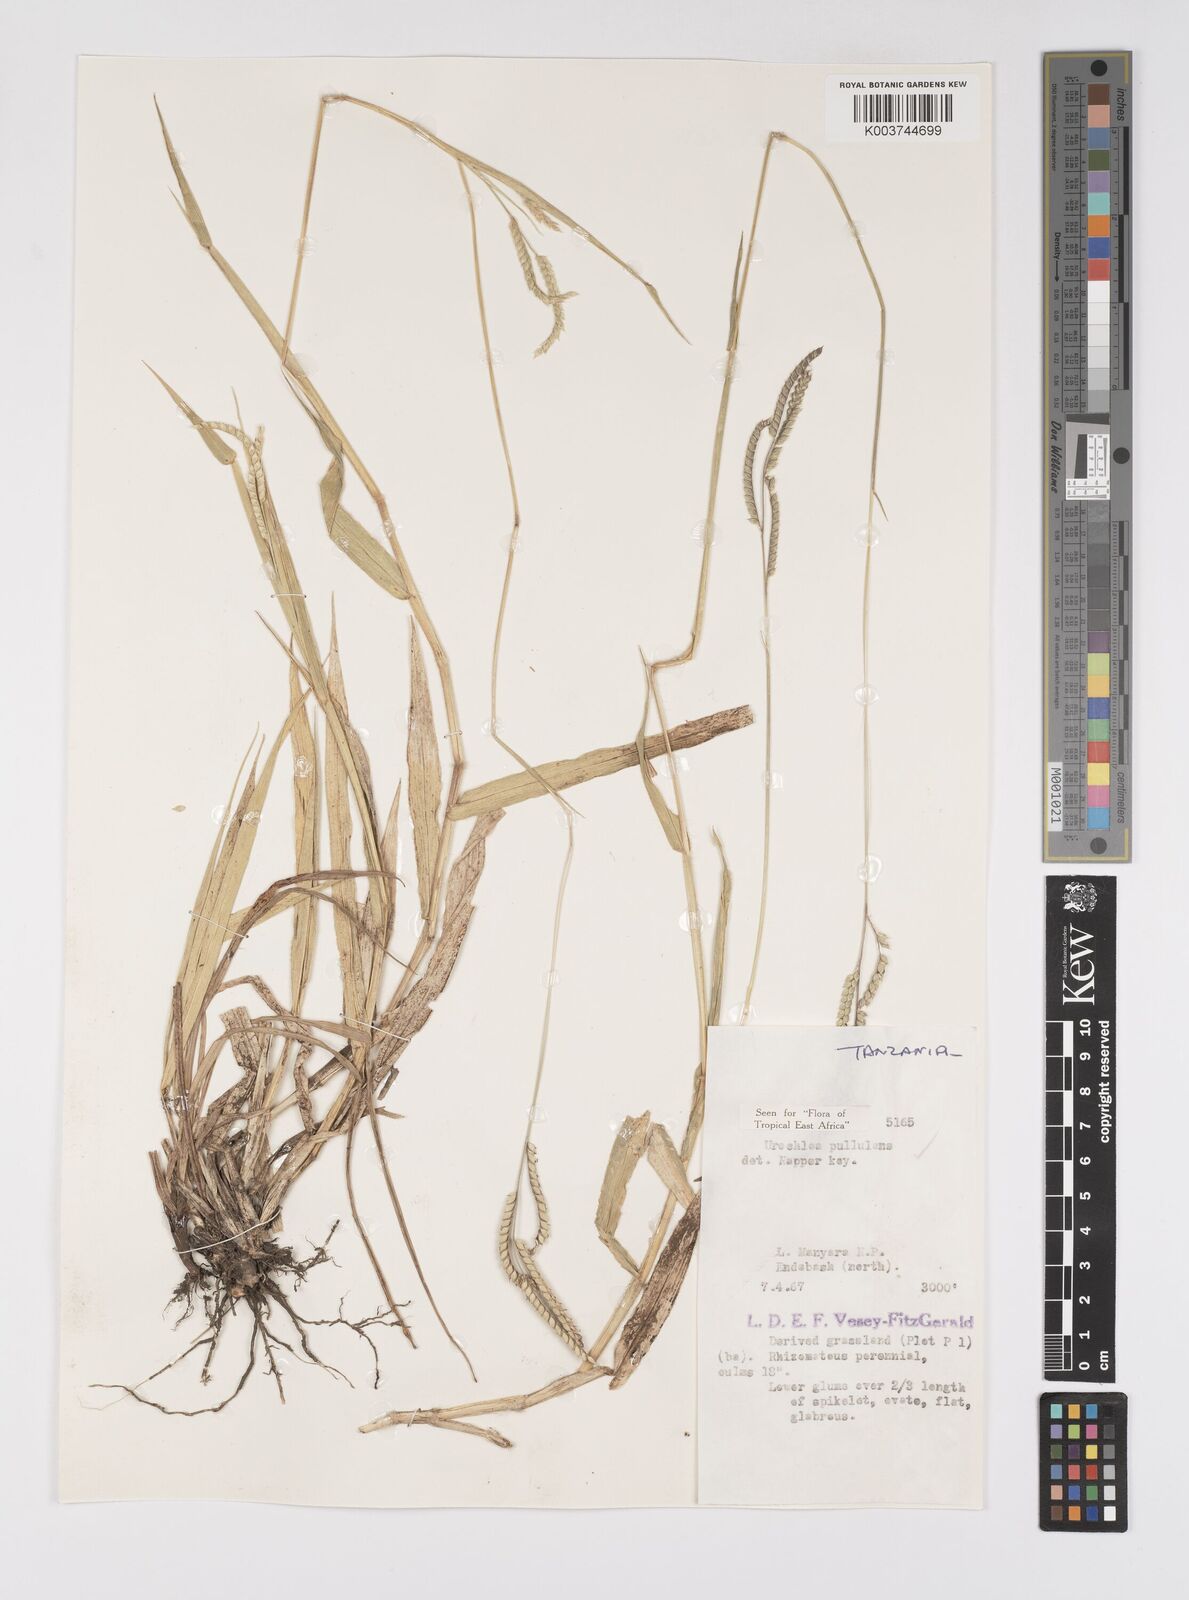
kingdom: Plantae
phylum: Tracheophyta
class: Liliopsida
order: Poales
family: Poaceae
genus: Urochloa
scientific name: Urochloa trichopus
